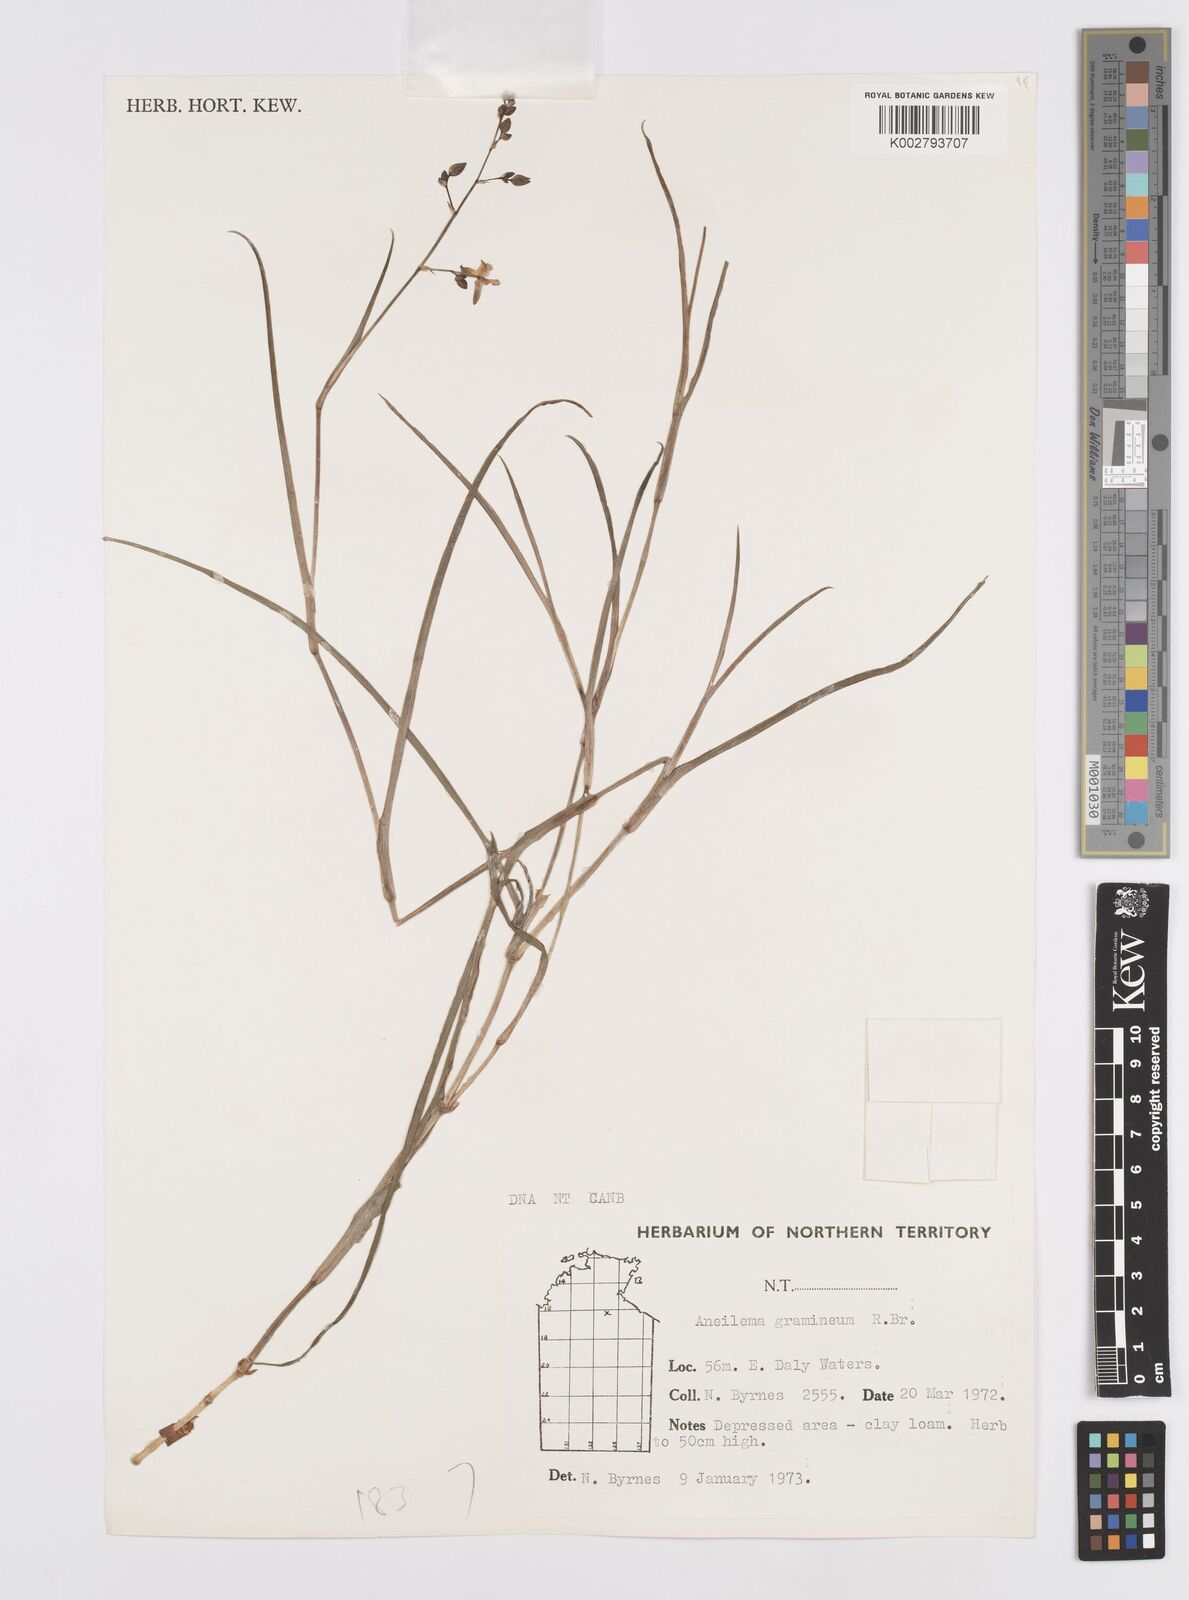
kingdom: Plantae
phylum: Tracheophyta
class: Liliopsida
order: Commelinales
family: Commelinaceae
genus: Murdannia
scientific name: Murdannia graminea
